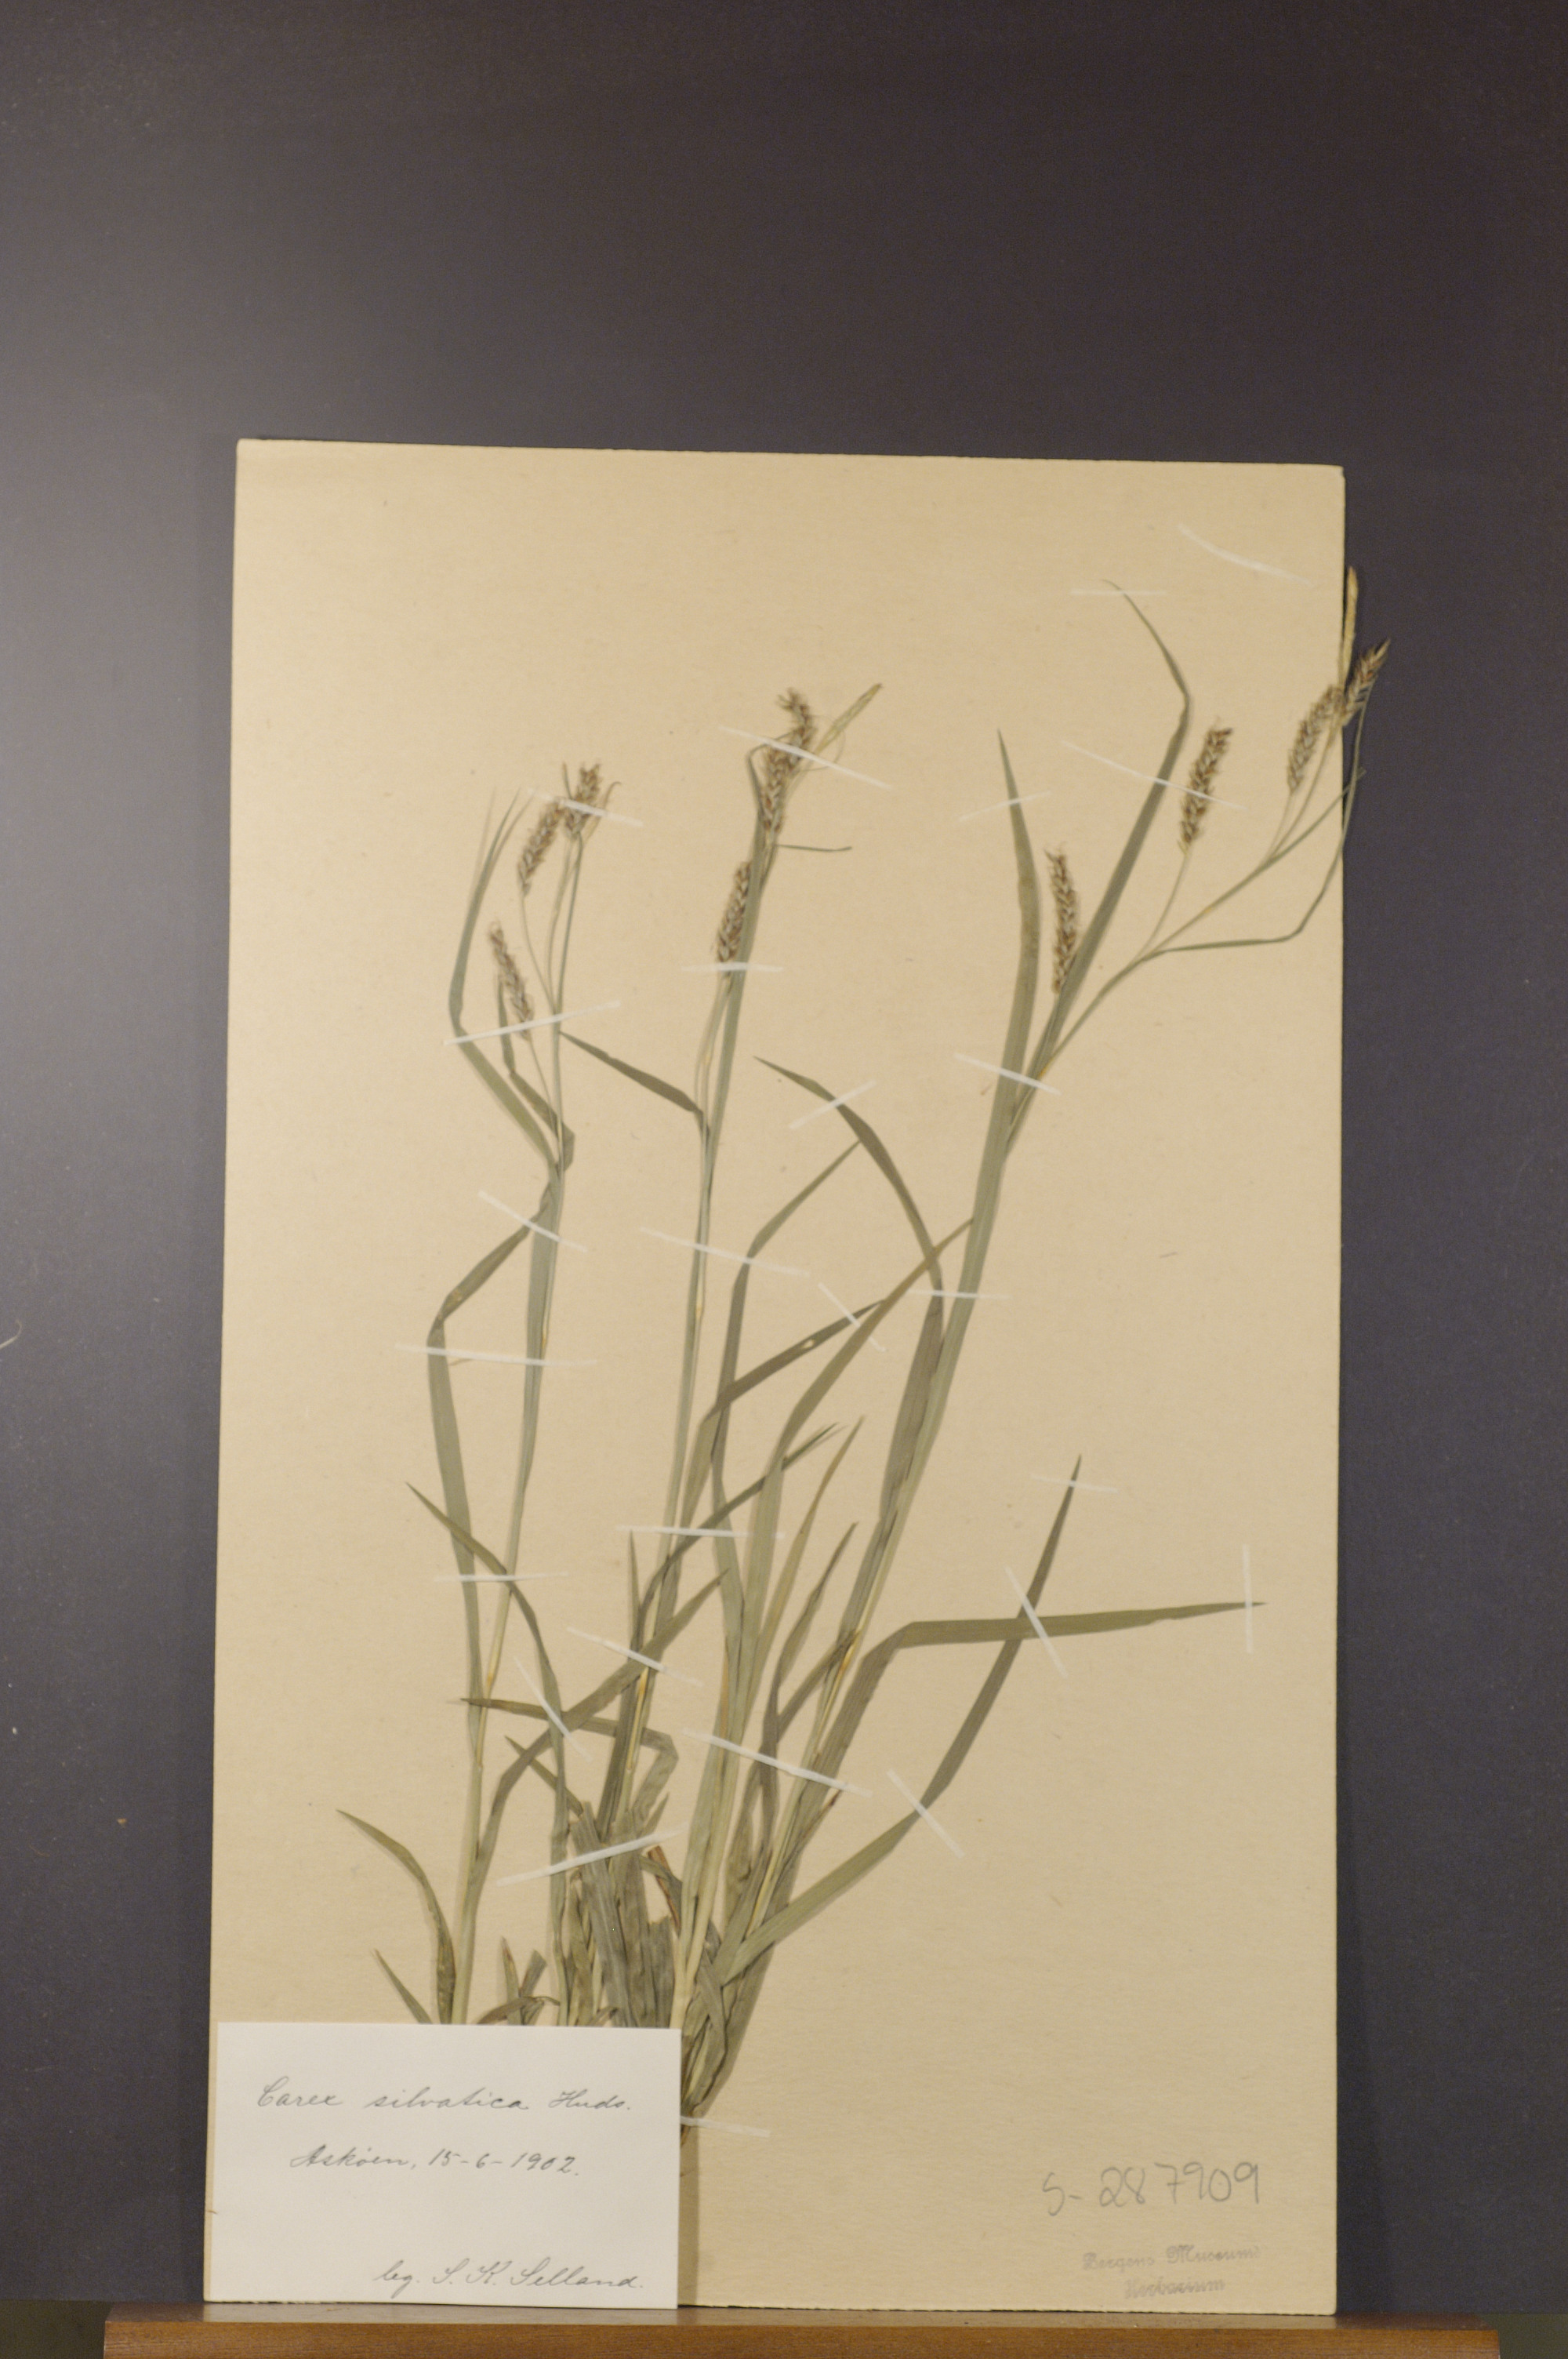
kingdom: Plantae
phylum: Tracheophyta
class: Liliopsida
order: Poales
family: Cyperaceae
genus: Carex
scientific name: Carex sylvatica
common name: Wood-sedge
